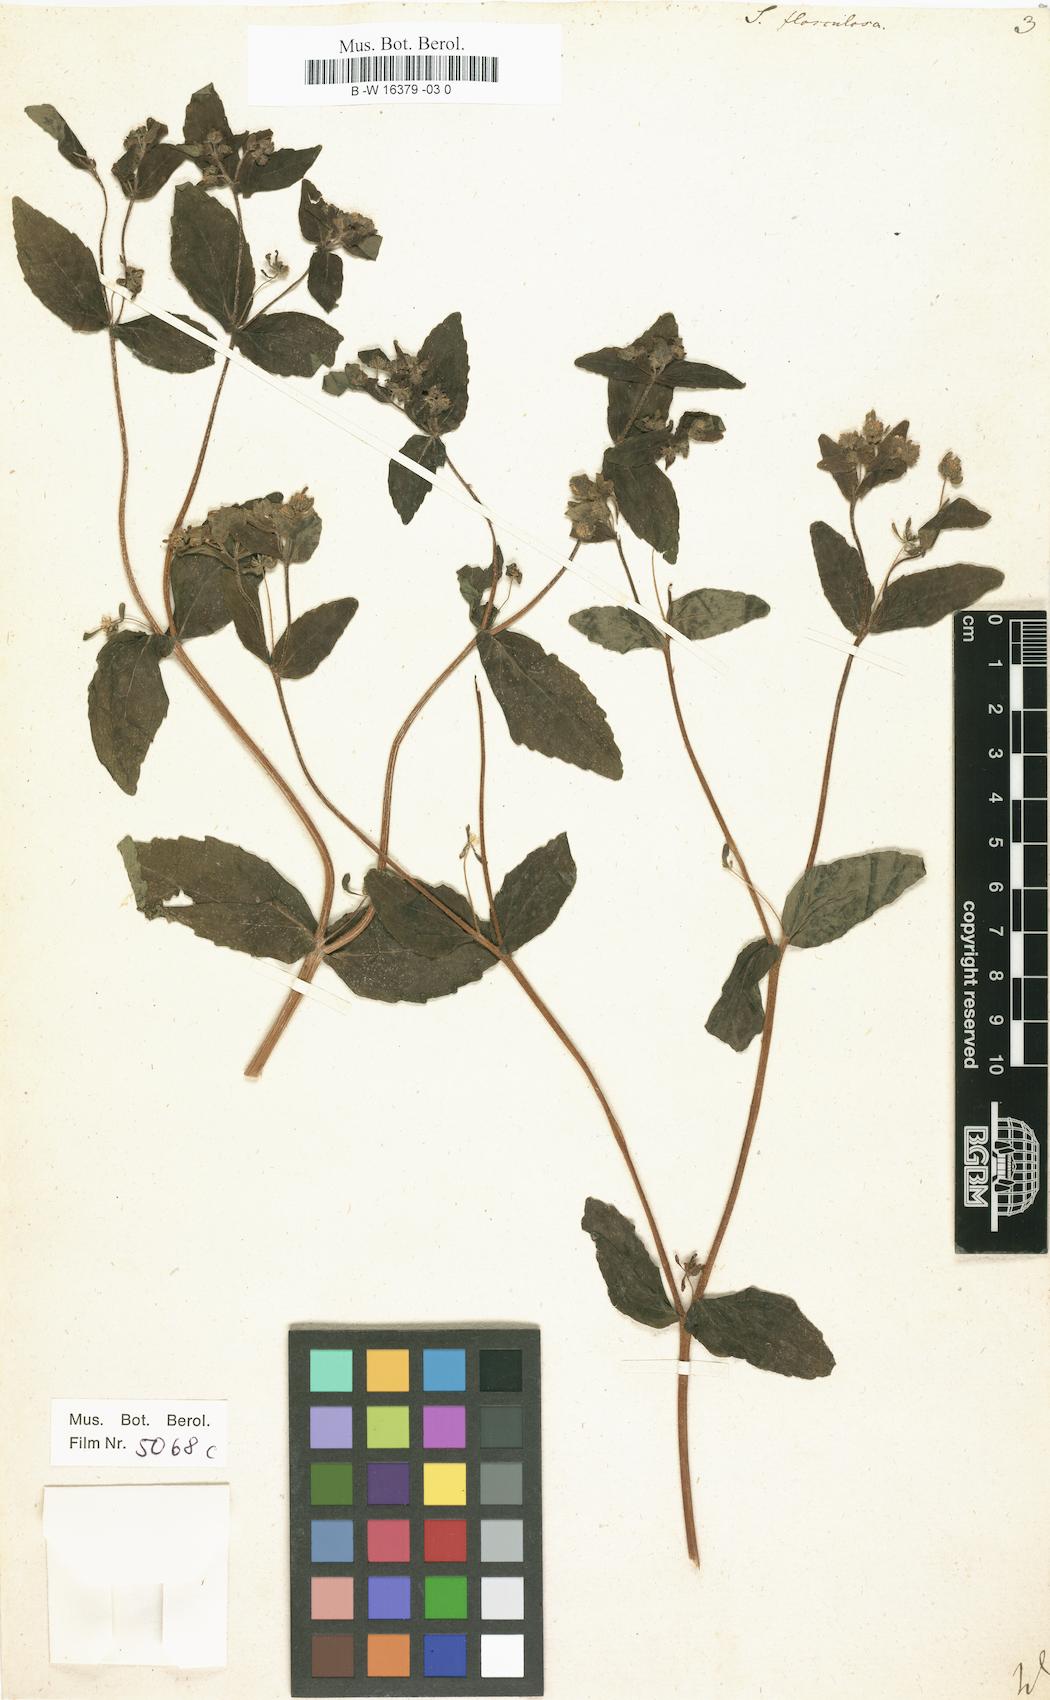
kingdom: Plantae
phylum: Tracheophyta
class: Magnoliopsida
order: Asterales
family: Asteraceae
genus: Siegesbeckia
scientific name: Siegesbeckia
